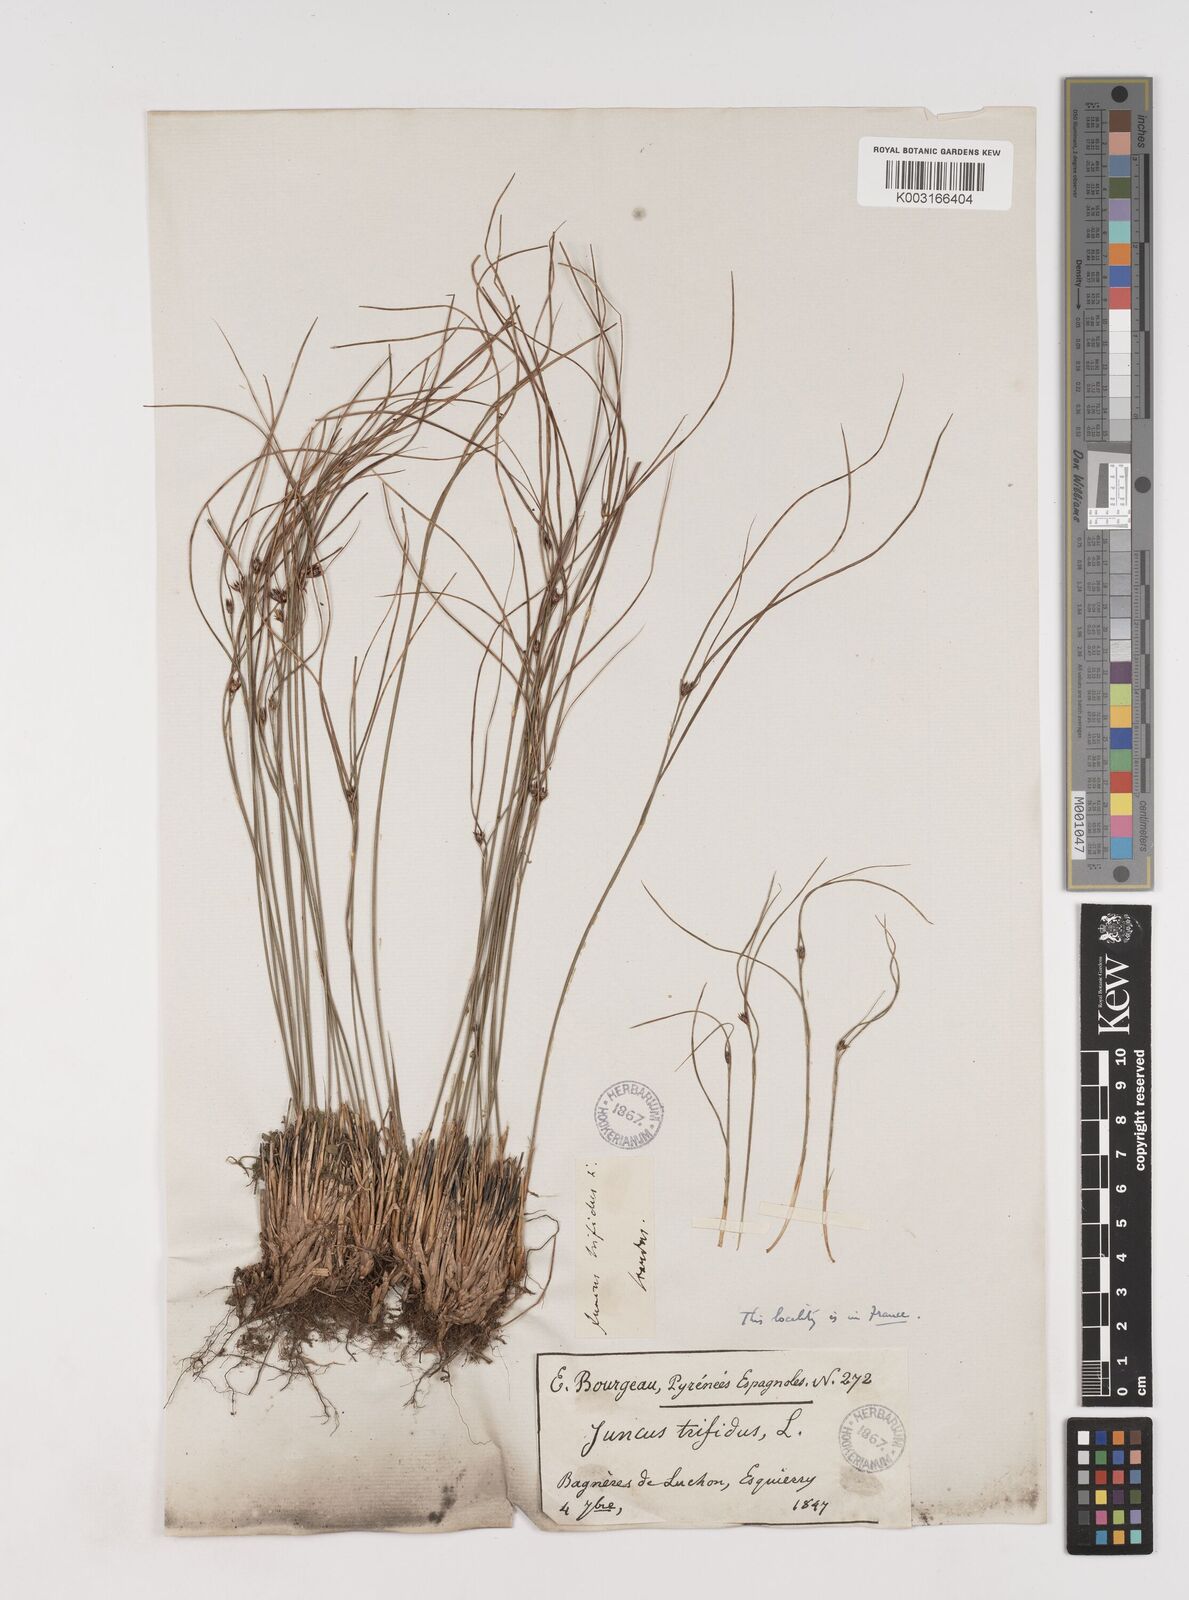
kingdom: Plantae
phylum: Tracheophyta
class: Liliopsida
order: Poales
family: Juncaceae
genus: Oreojuncus
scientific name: Oreojuncus trifidus
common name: Highland rush
